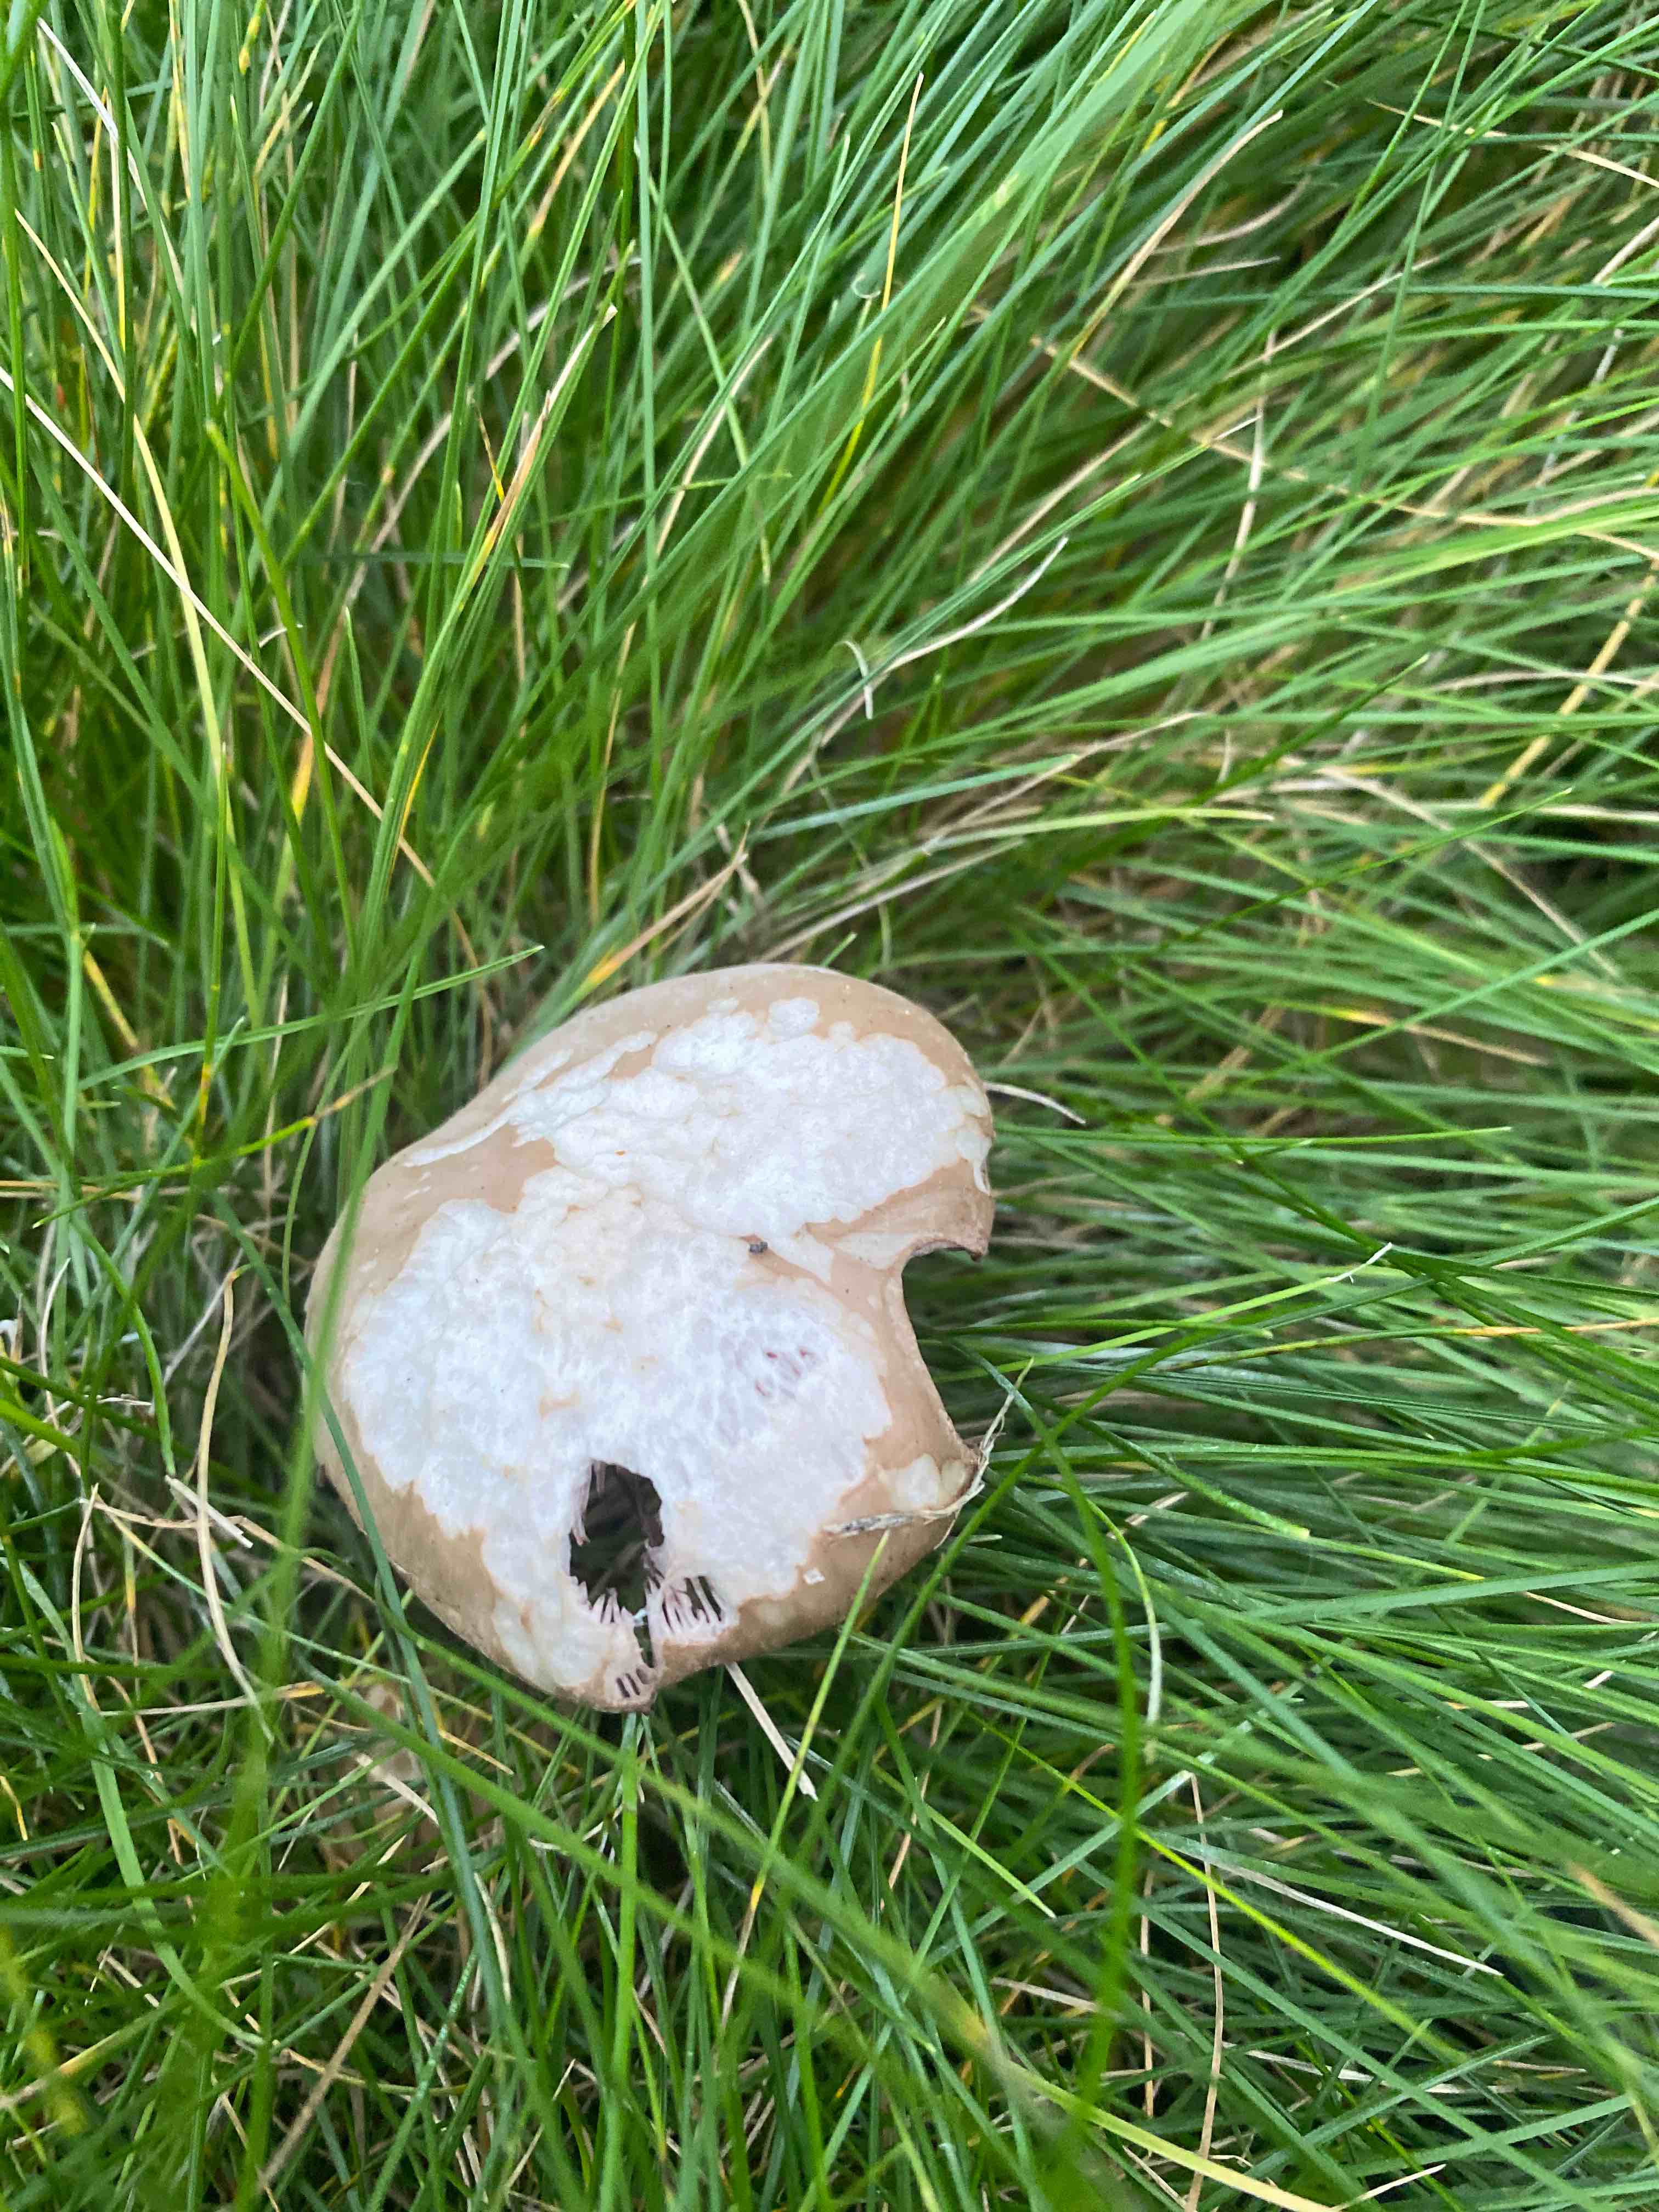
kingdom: Fungi
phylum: Basidiomycota
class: Agaricomycetes
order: Agaricales
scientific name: Agaricales
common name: champignonordenen
